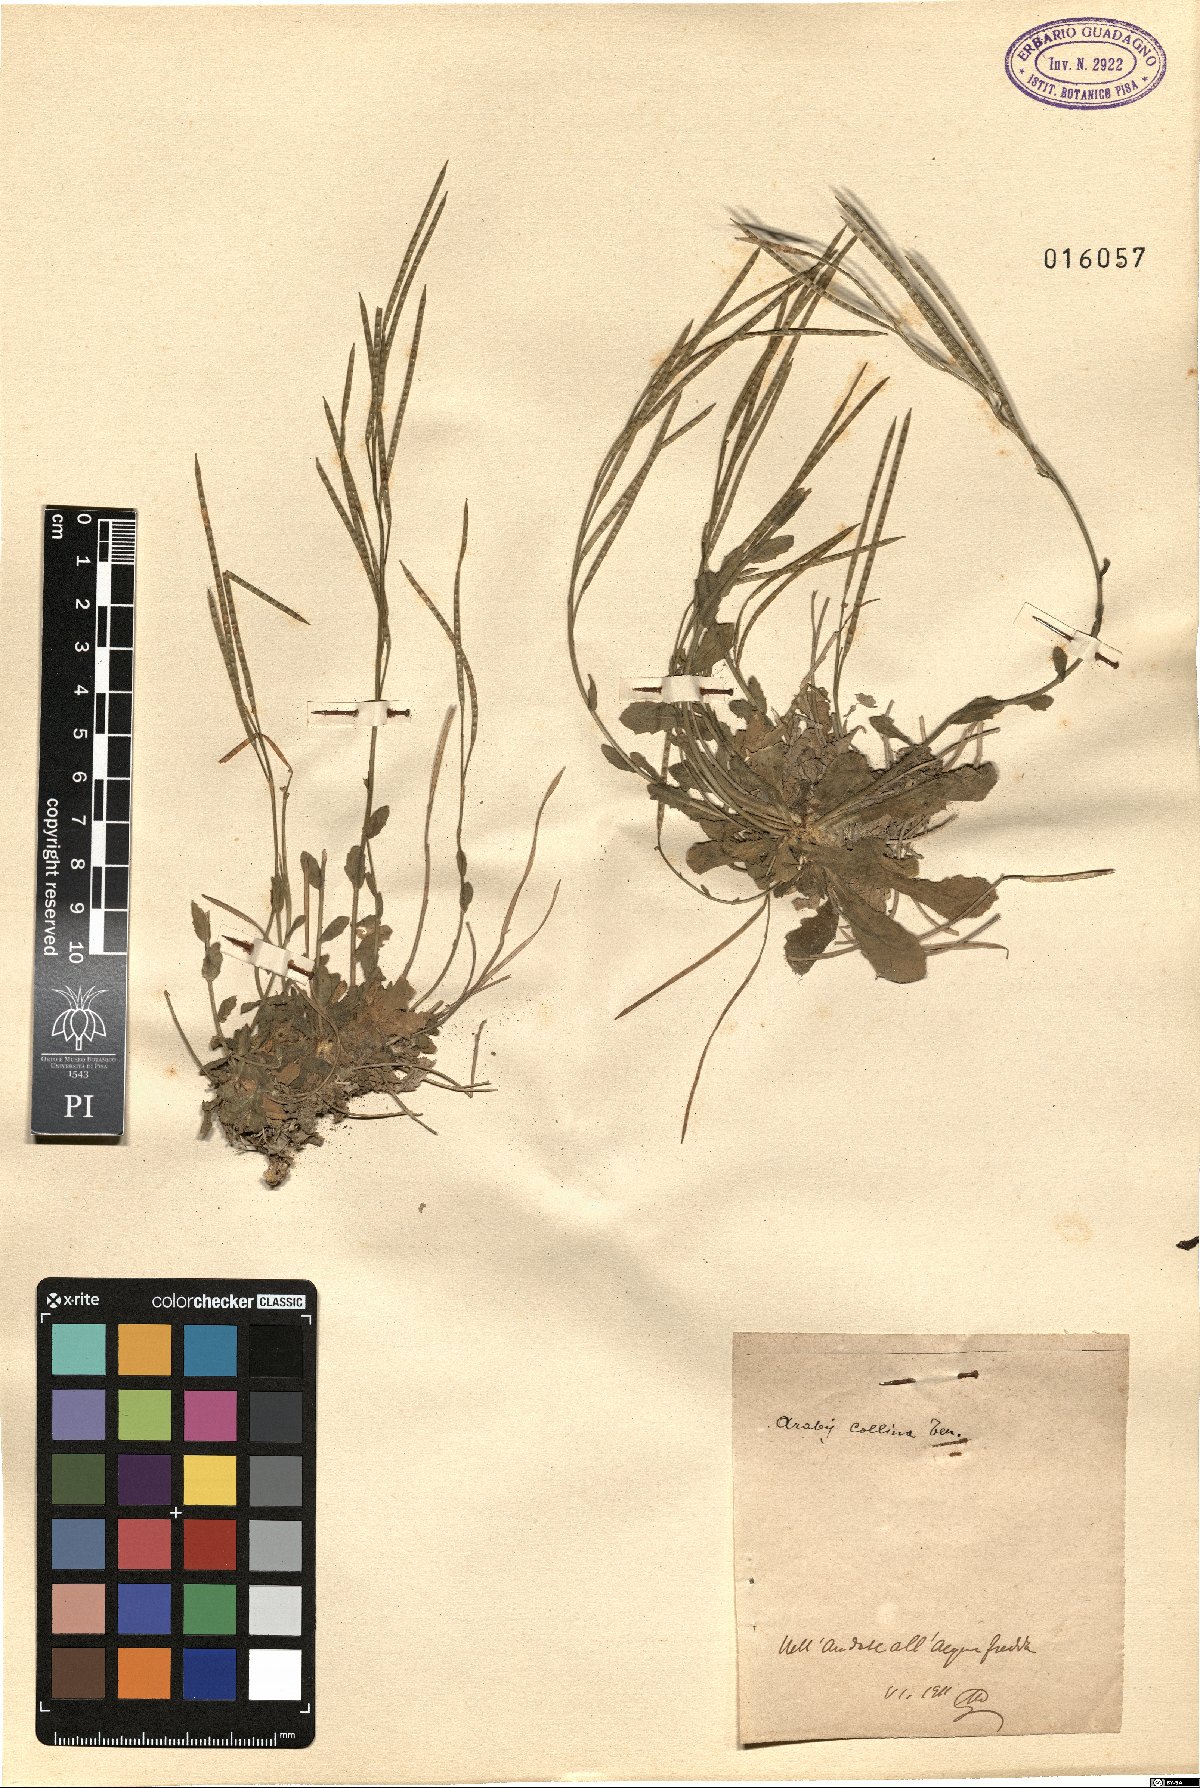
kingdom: Plantae
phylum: Tracheophyta
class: Magnoliopsida
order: Brassicales
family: Brassicaceae
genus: Arabis
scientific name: Arabis collina
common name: Rosy cress
